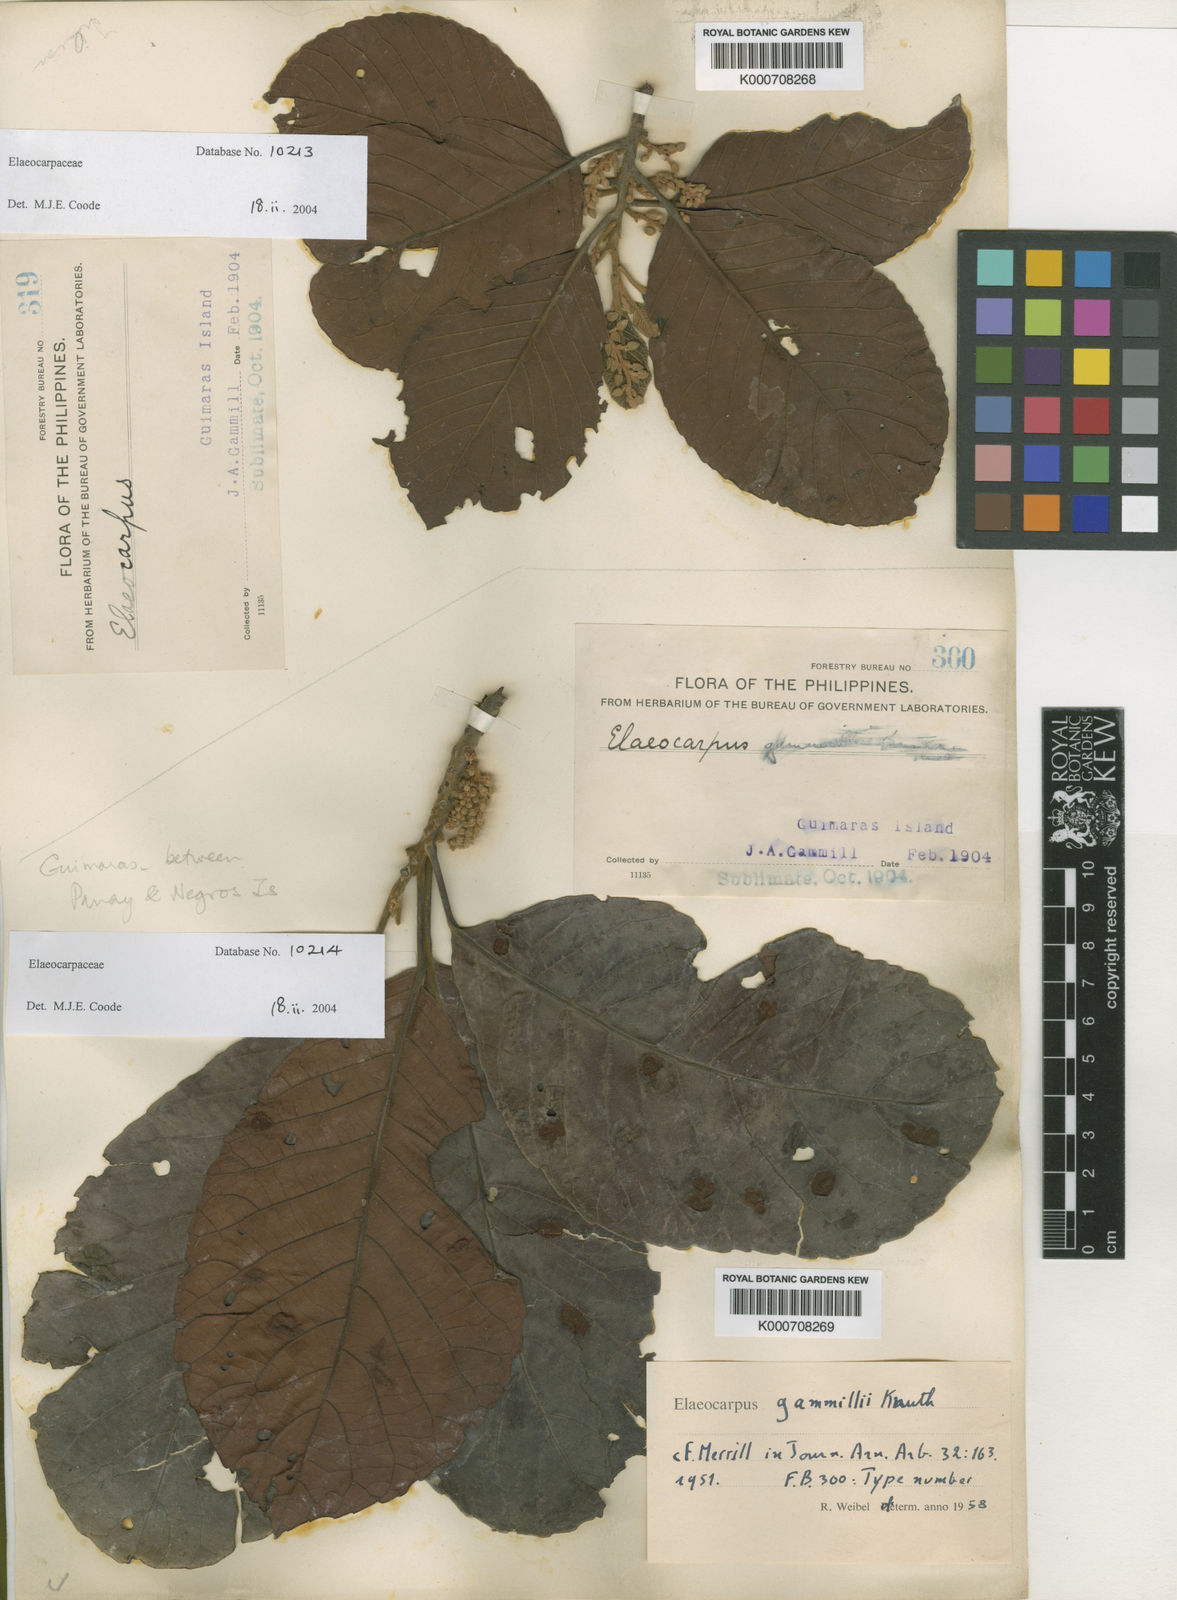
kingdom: Plantae
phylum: Tracheophyta
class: Magnoliopsida
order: Oxalidales
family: Elaeocarpaceae
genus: Elaeocarpus
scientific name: Elaeocarpus gammillii
